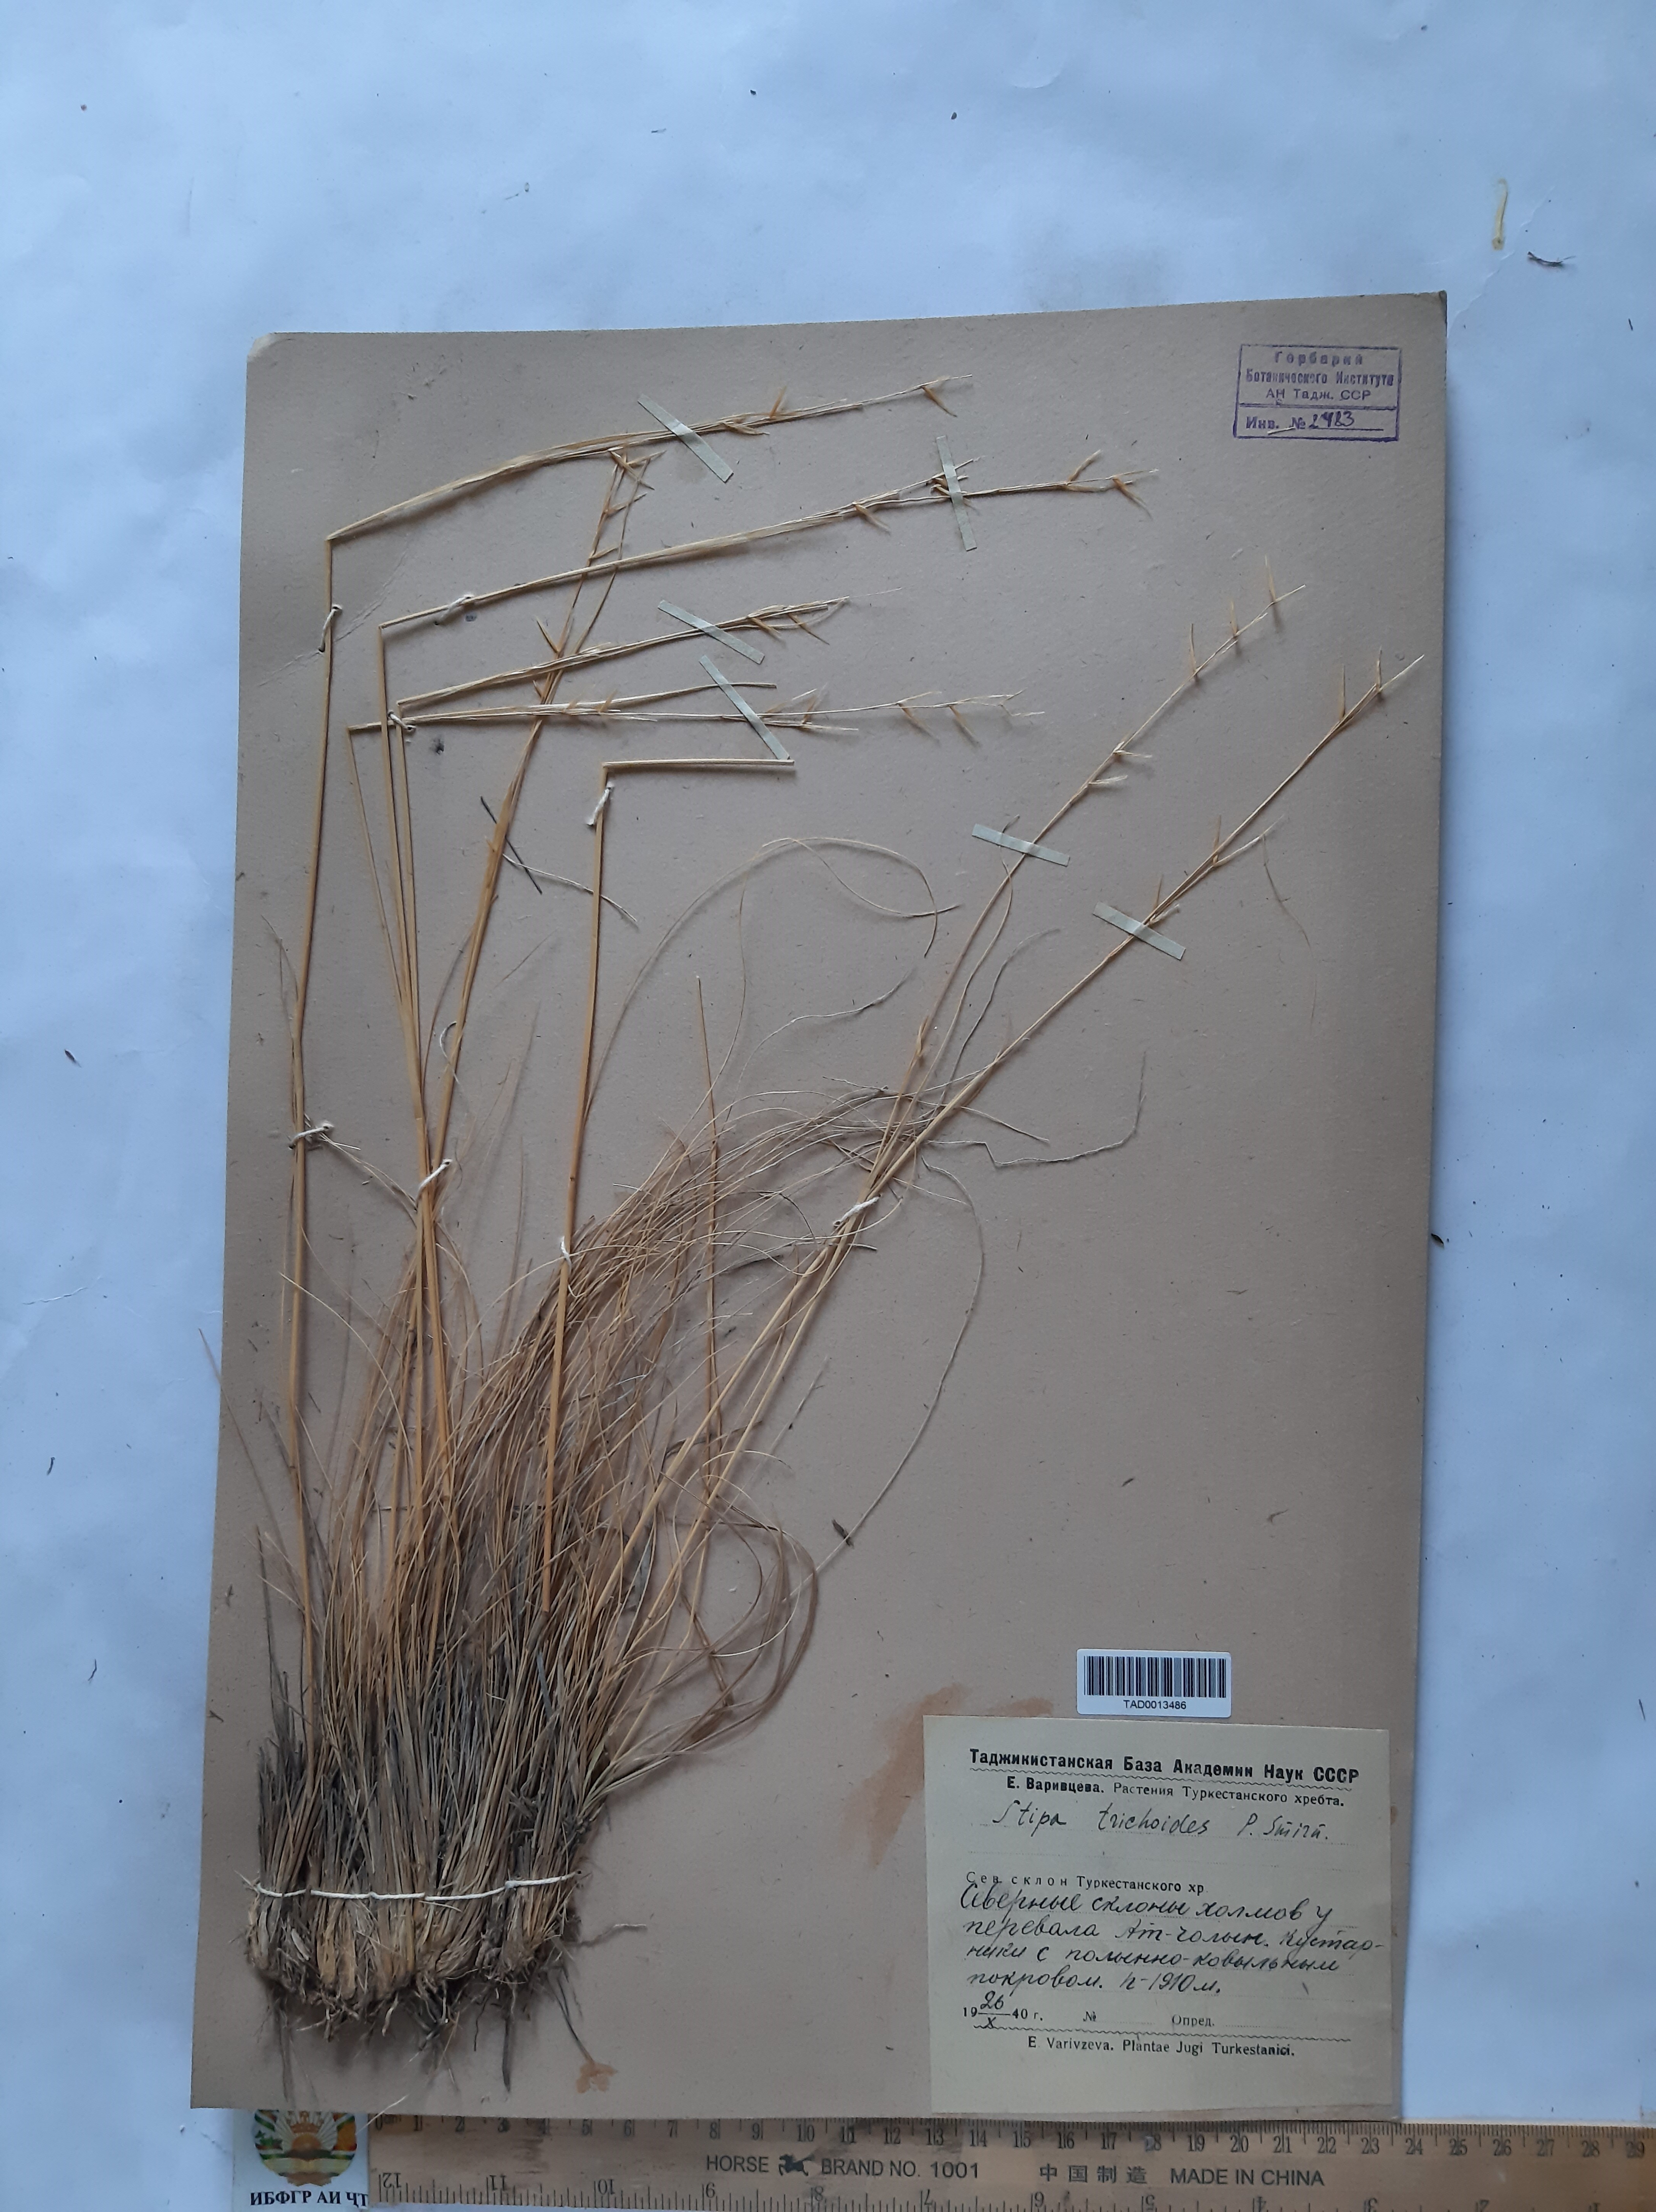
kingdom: Plantae
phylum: Tracheophyta
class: Liliopsida
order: Poales
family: Poaceae
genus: Stipa
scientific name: Stipa trichoides
